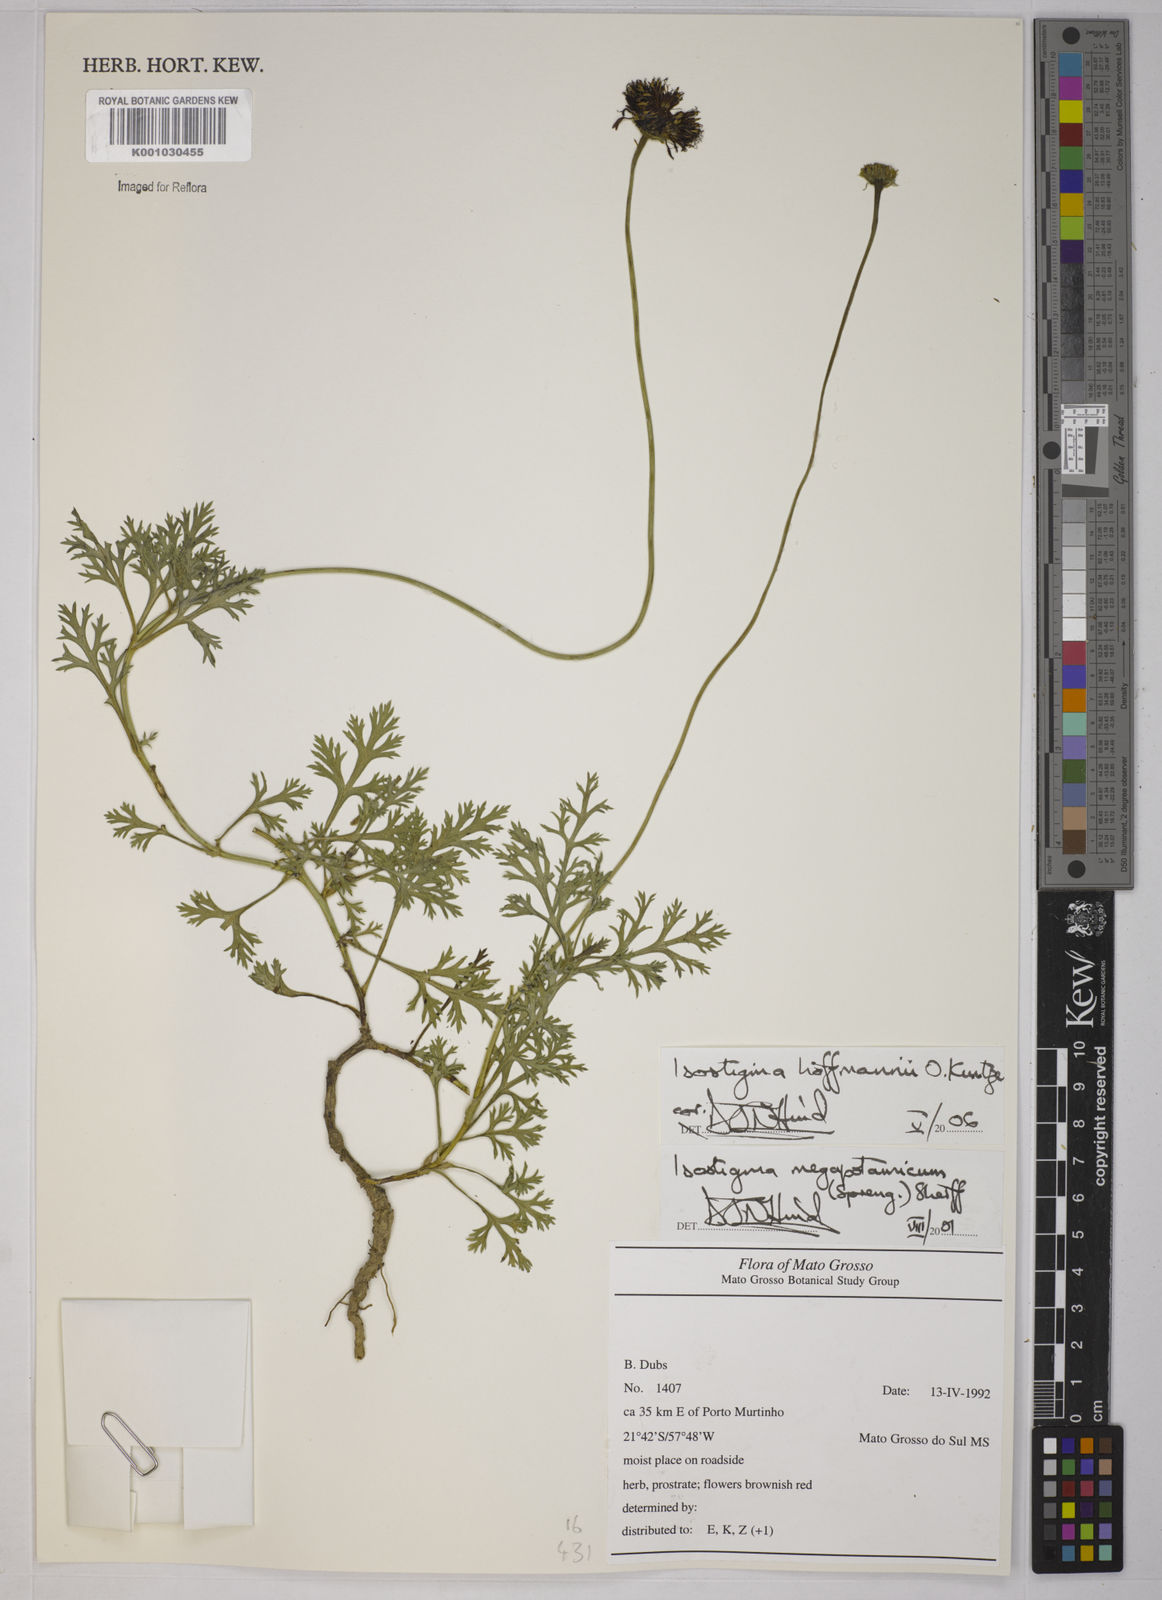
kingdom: Plantae
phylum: Tracheophyta
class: Magnoliopsida
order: Asterales
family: Asteraceae
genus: Isostigma
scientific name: Isostigma hoffmannii
